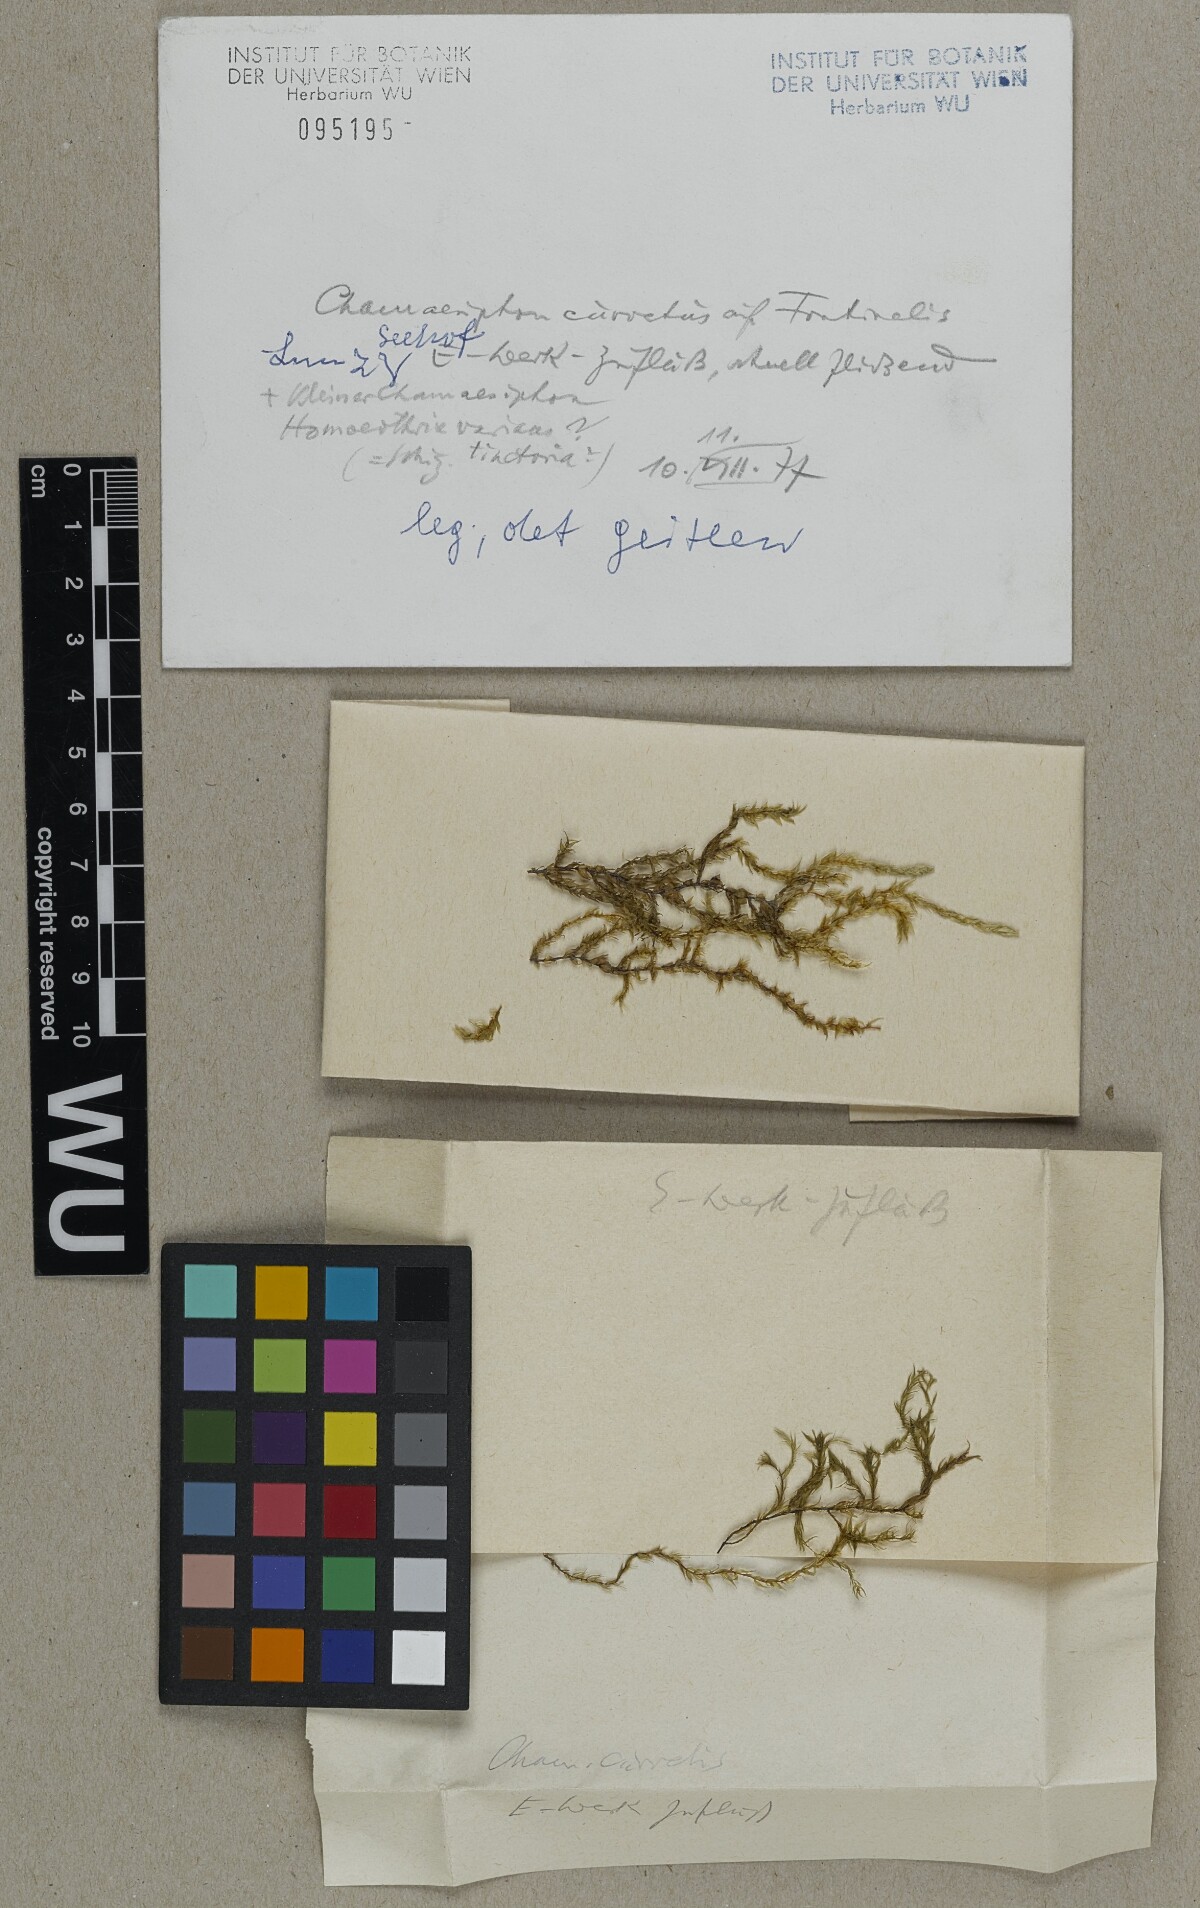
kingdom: Bacteria
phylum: Cyanobacteria
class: Cyanobacteriia
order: Cyanobacteriales
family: Chamaesiphonaceae
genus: Chamaesiphon
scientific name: Chamaesiphon confervicola
